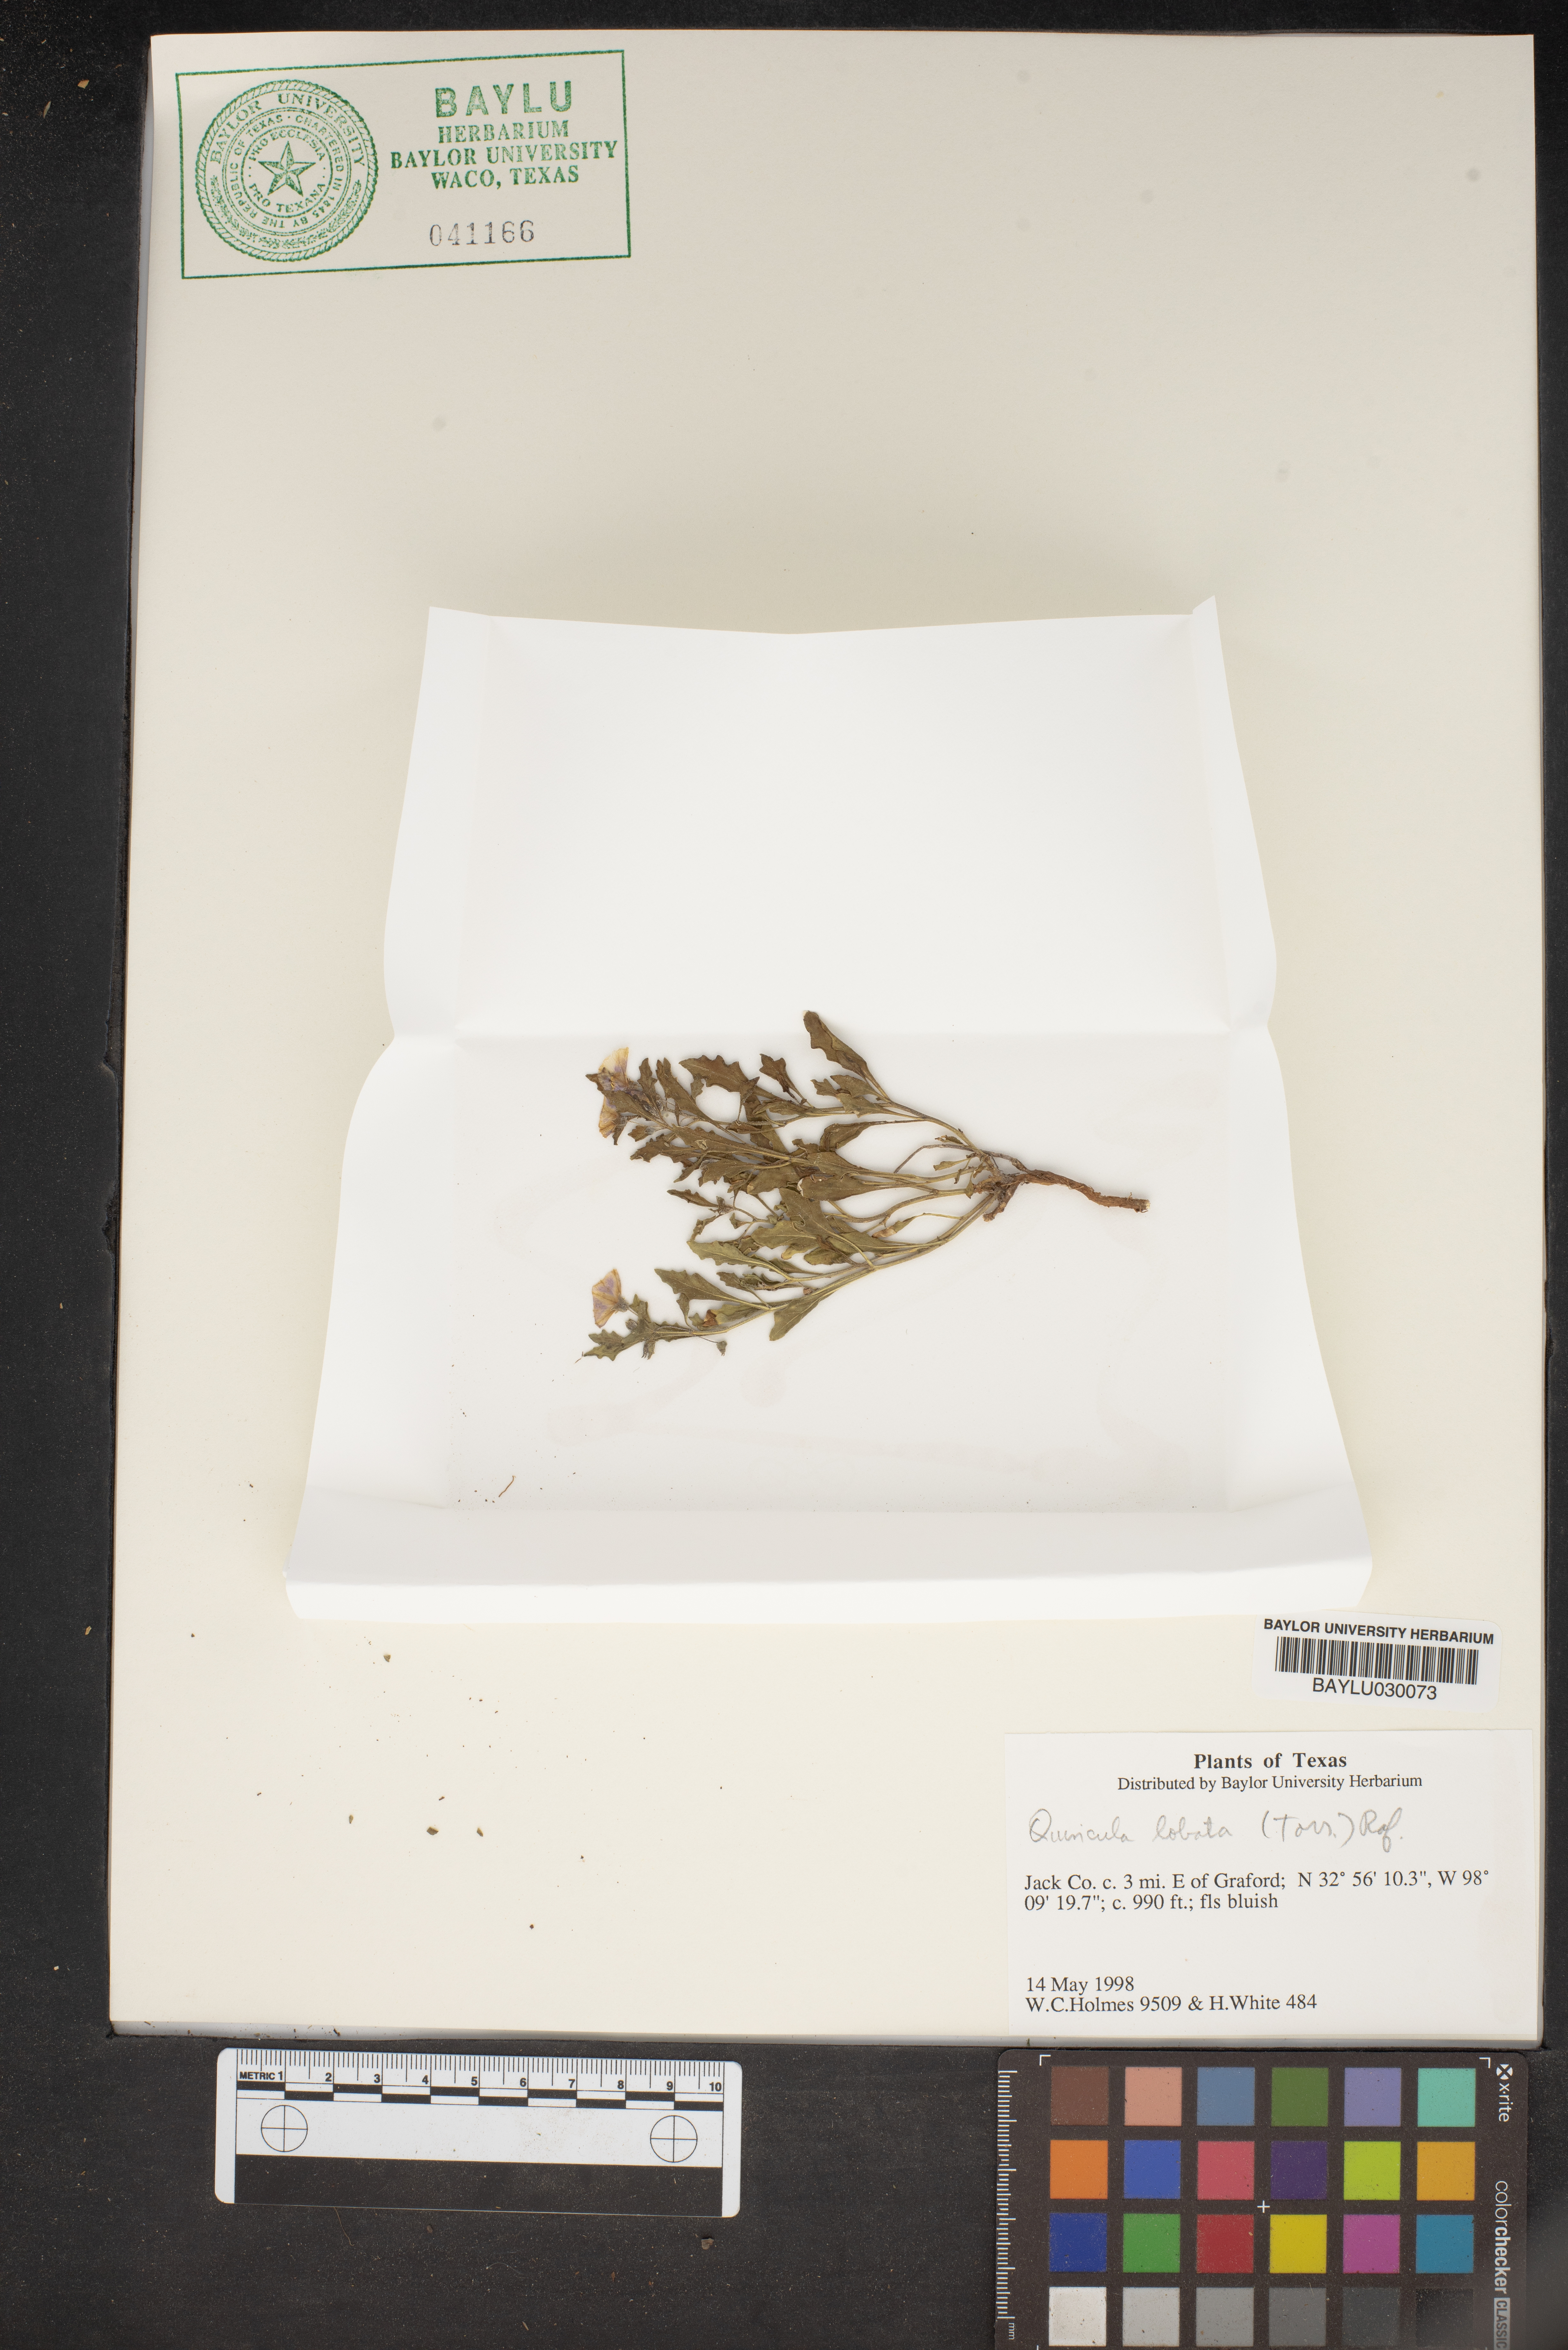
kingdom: Plantae
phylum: Tracheophyta
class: Magnoliopsida
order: Solanales
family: Solanaceae
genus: Quincula
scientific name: Quincula lobata
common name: Purple-ground-cherry
